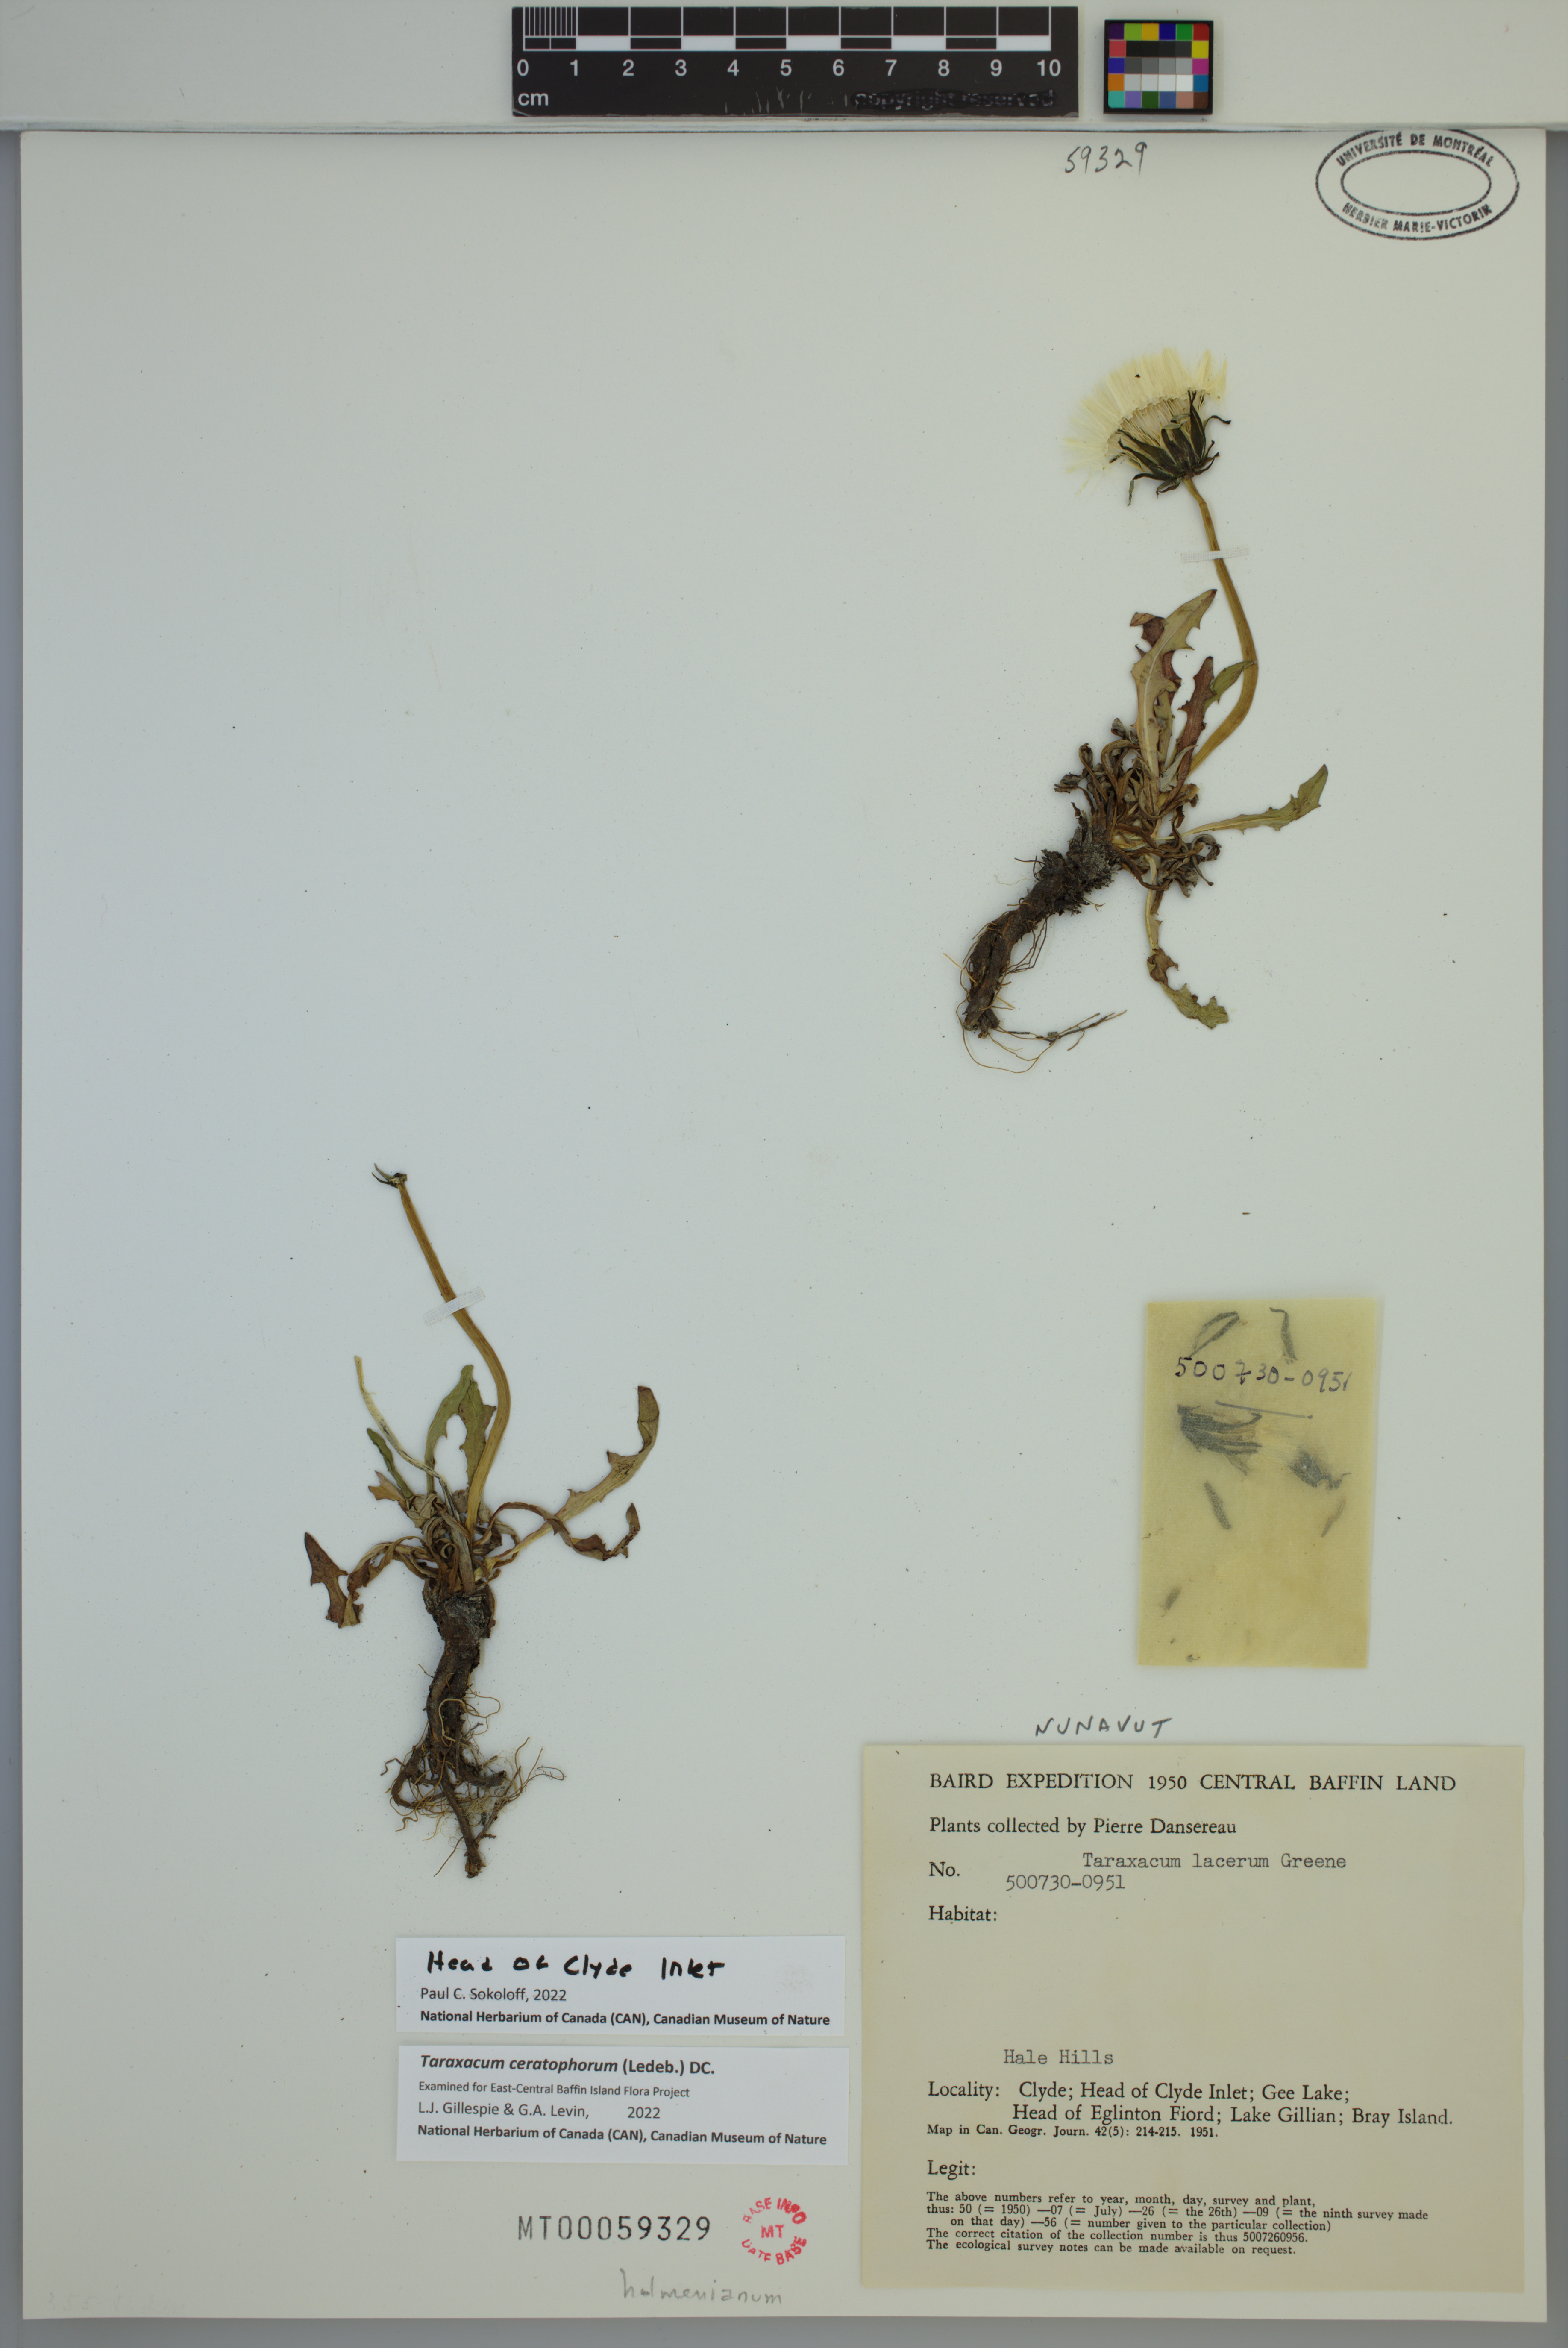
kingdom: Plantae
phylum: Tracheophyta
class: Magnoliopsida
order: Asterales
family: Asteraceae
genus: Taraxacum
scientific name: Taraxacum ceratophorum
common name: Horn-bearing dandelion
